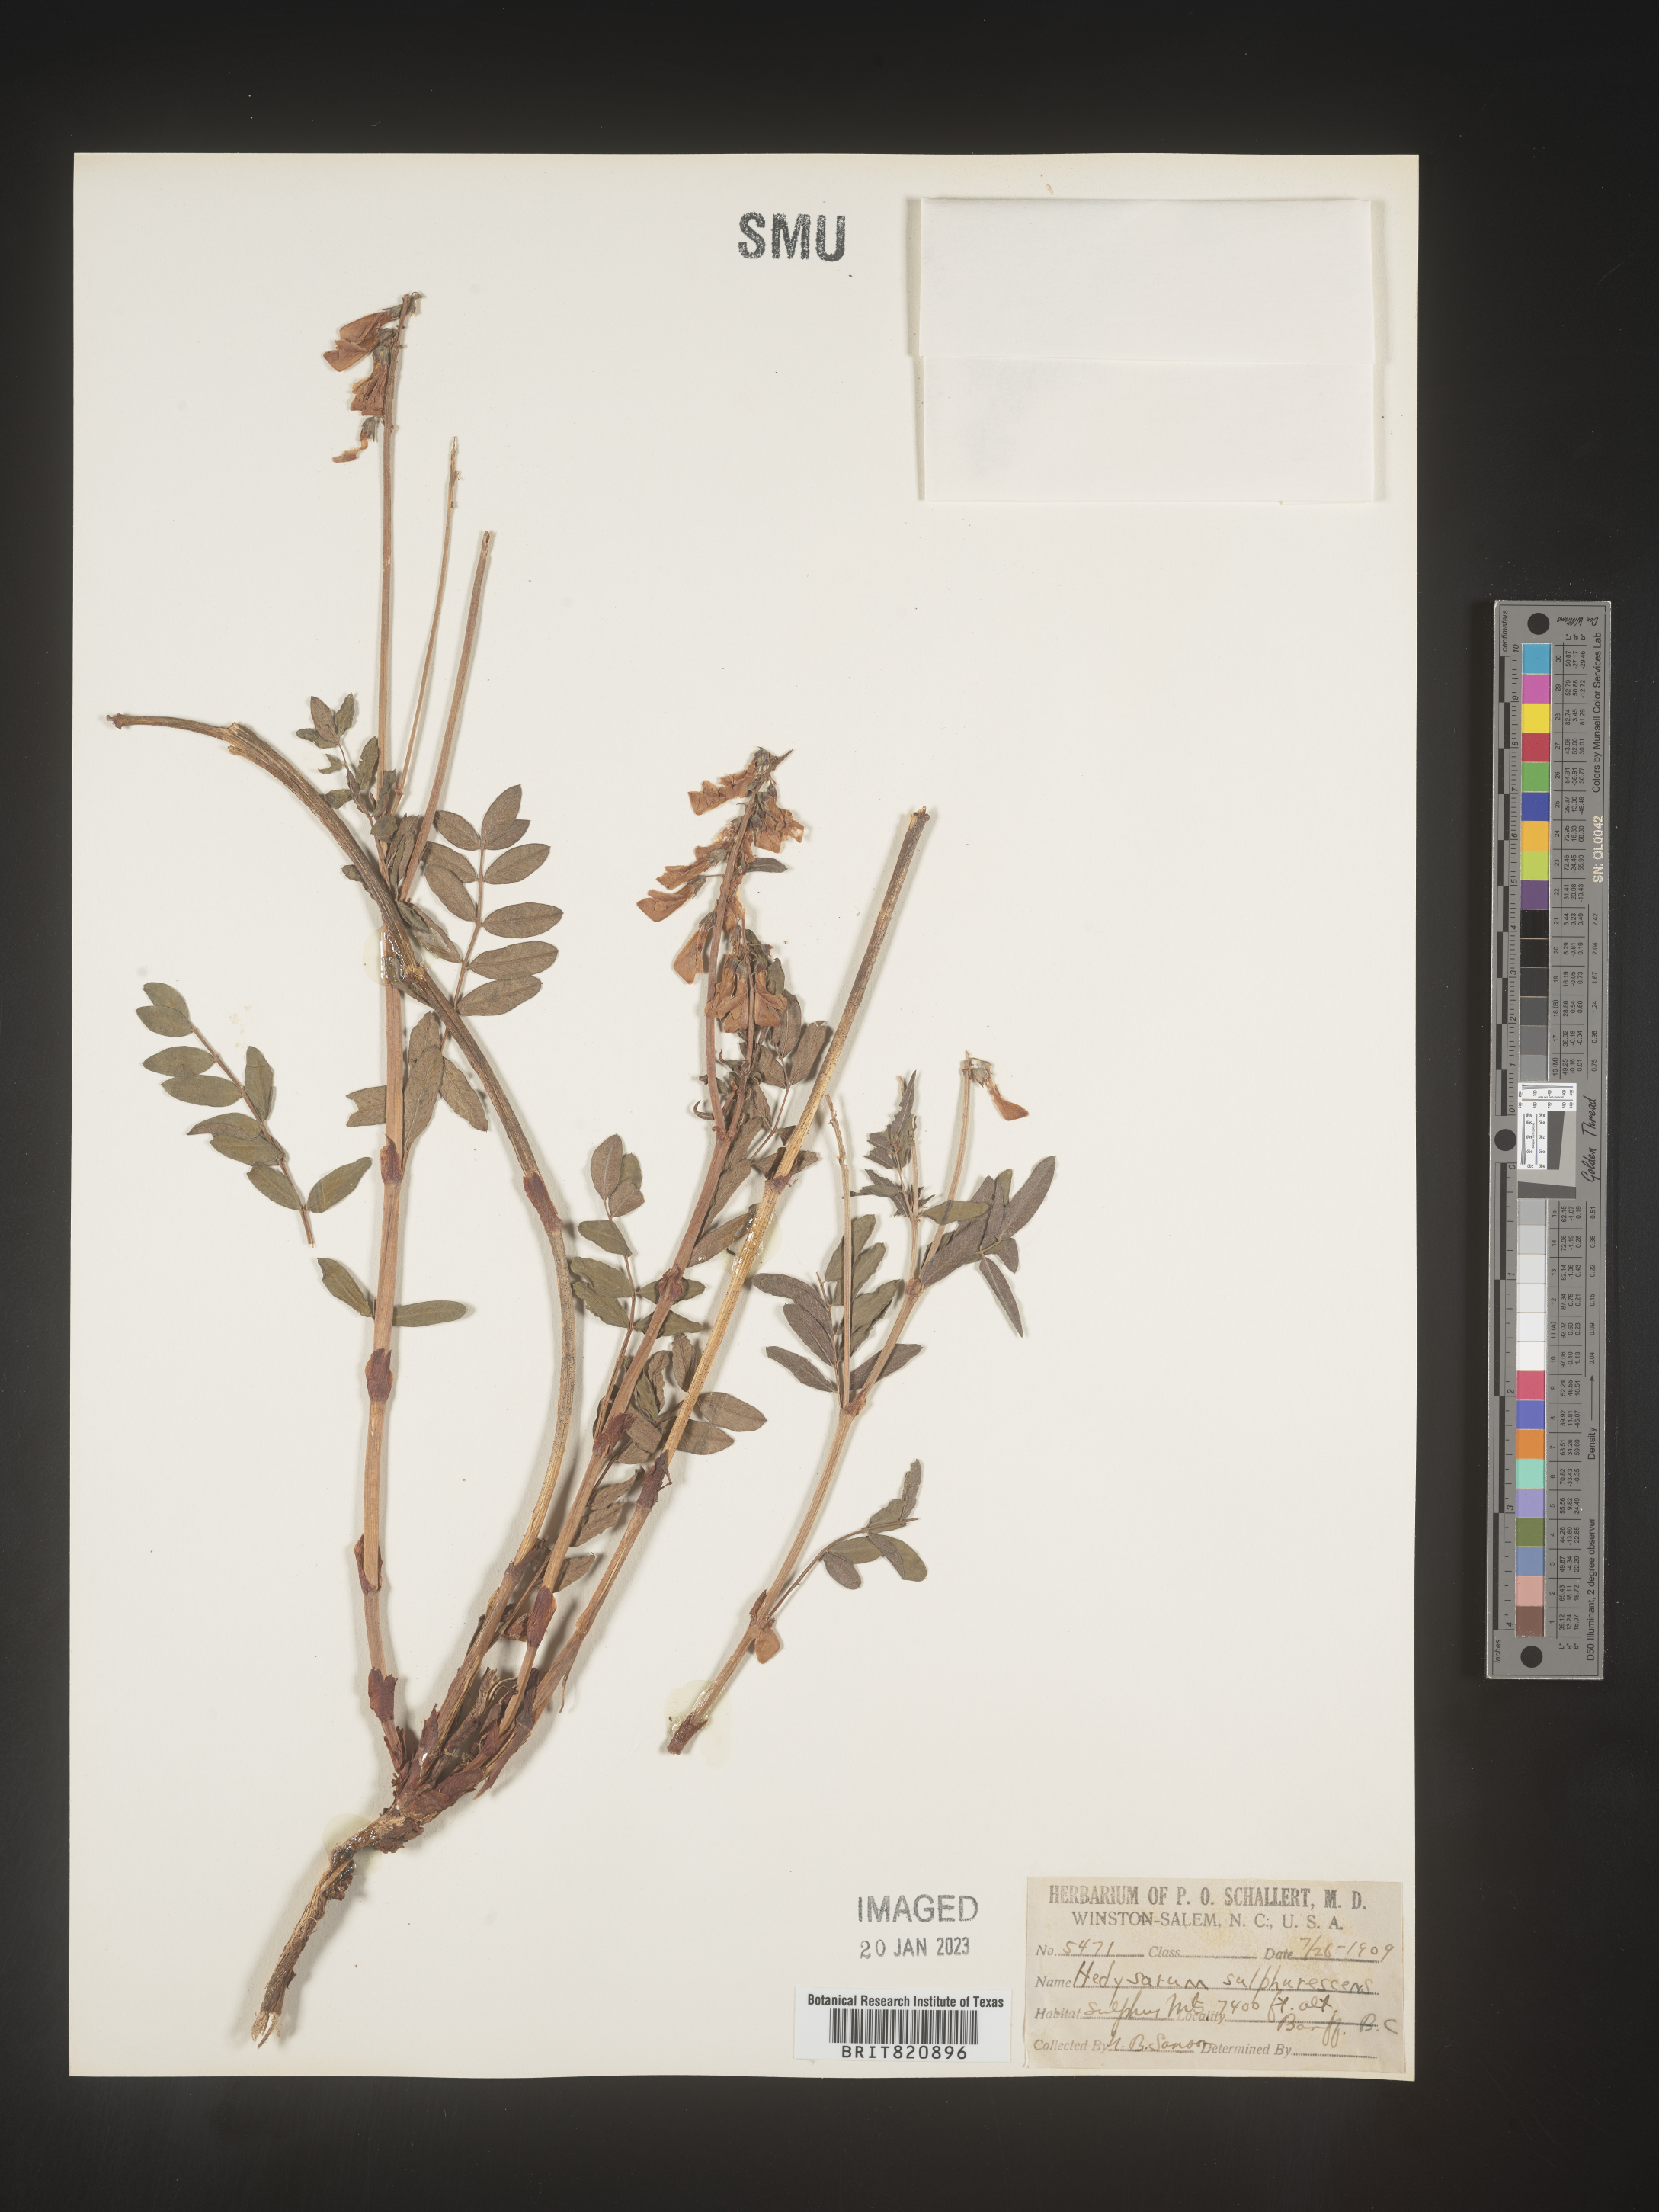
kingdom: Plantae
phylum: Tracheophyta
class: Magnoliopsida
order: Fabales
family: Fabaceae
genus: Hedysarum
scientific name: Hedysarum sulphurescens
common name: Sulphur hedysarum
